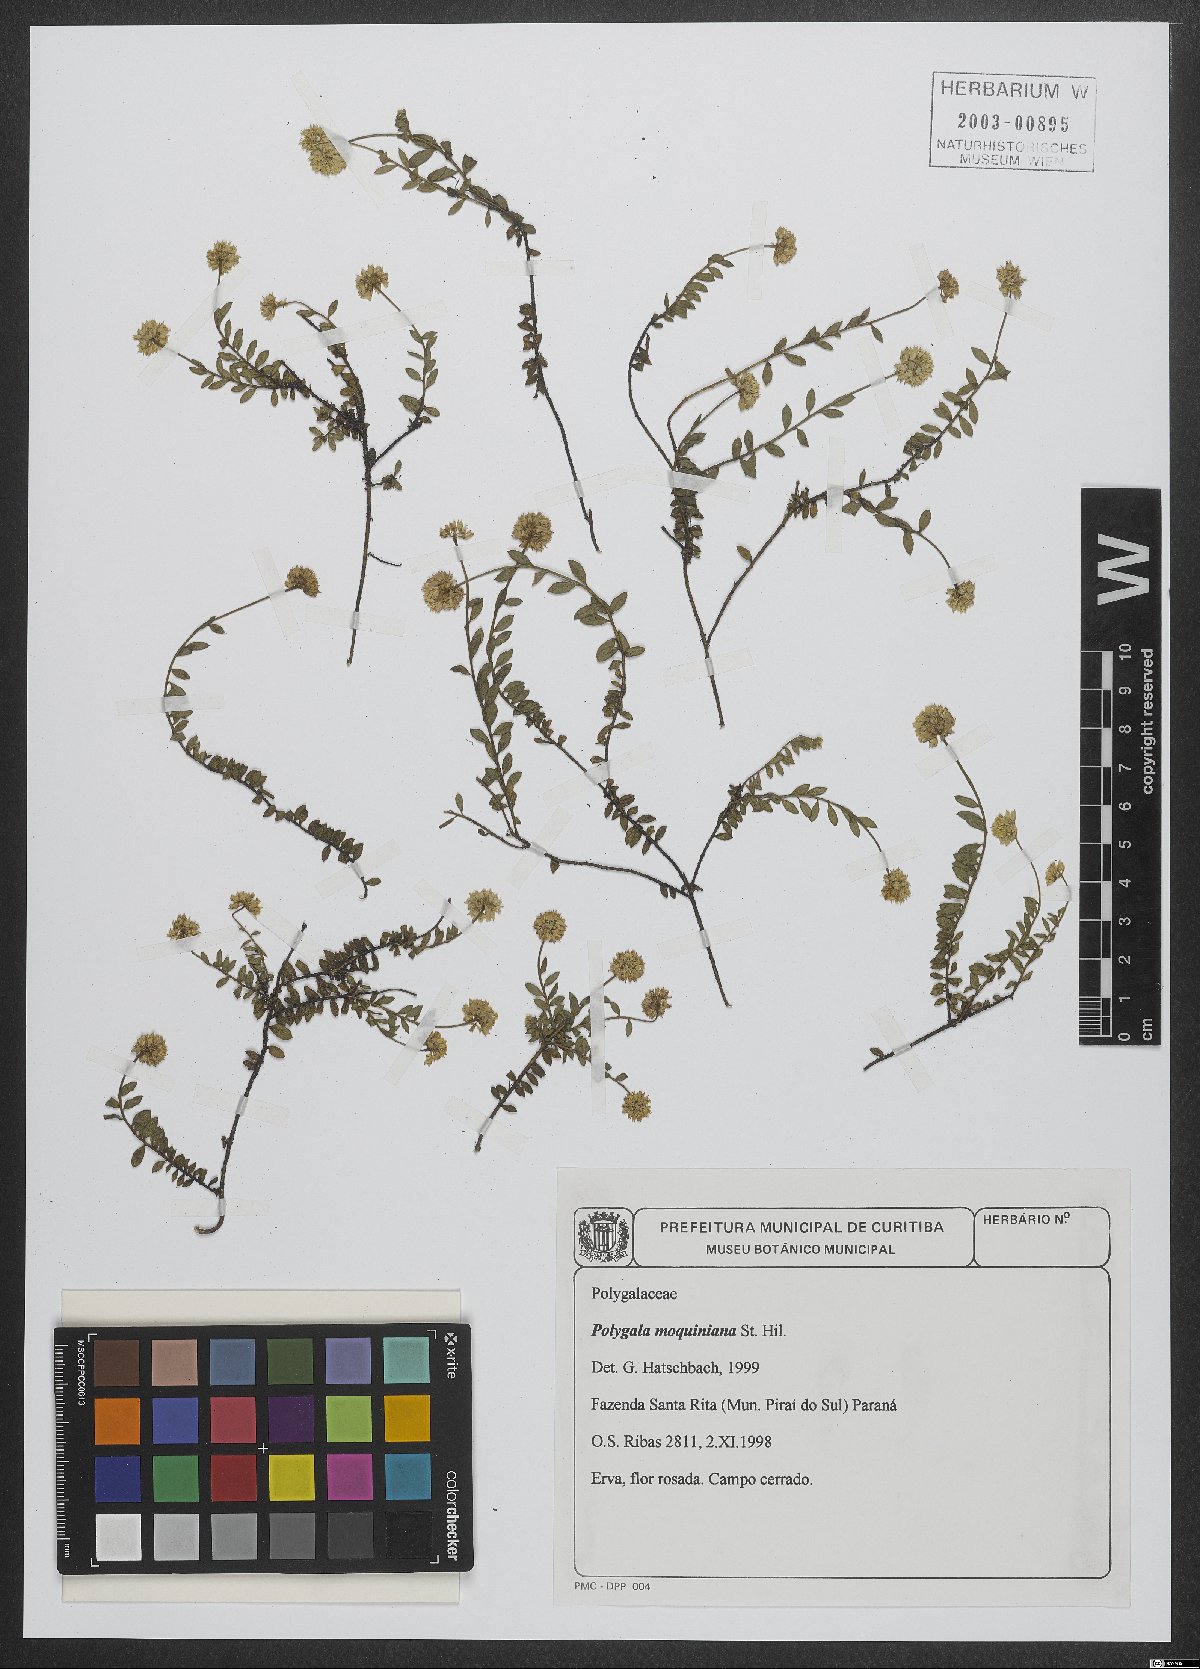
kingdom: Plantae
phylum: Tracheophyta
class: Magnoliopsida
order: Fabales
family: Polygalaceae
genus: Polygala
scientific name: Polygala moquiniana
